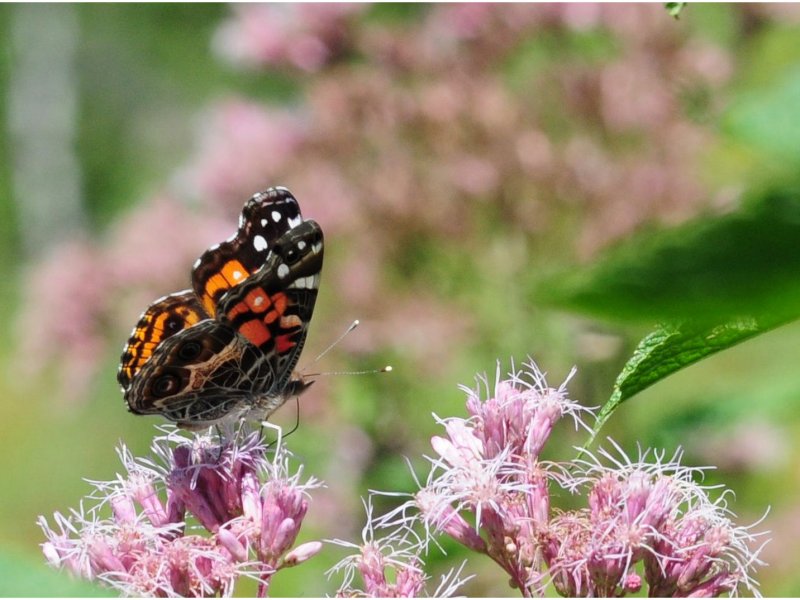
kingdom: Animalia
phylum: Arthropoda
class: Insecta
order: Lepidoptera
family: Nymphalidae
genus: Vanessa
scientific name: Vanessa virginiensis
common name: American Lady
